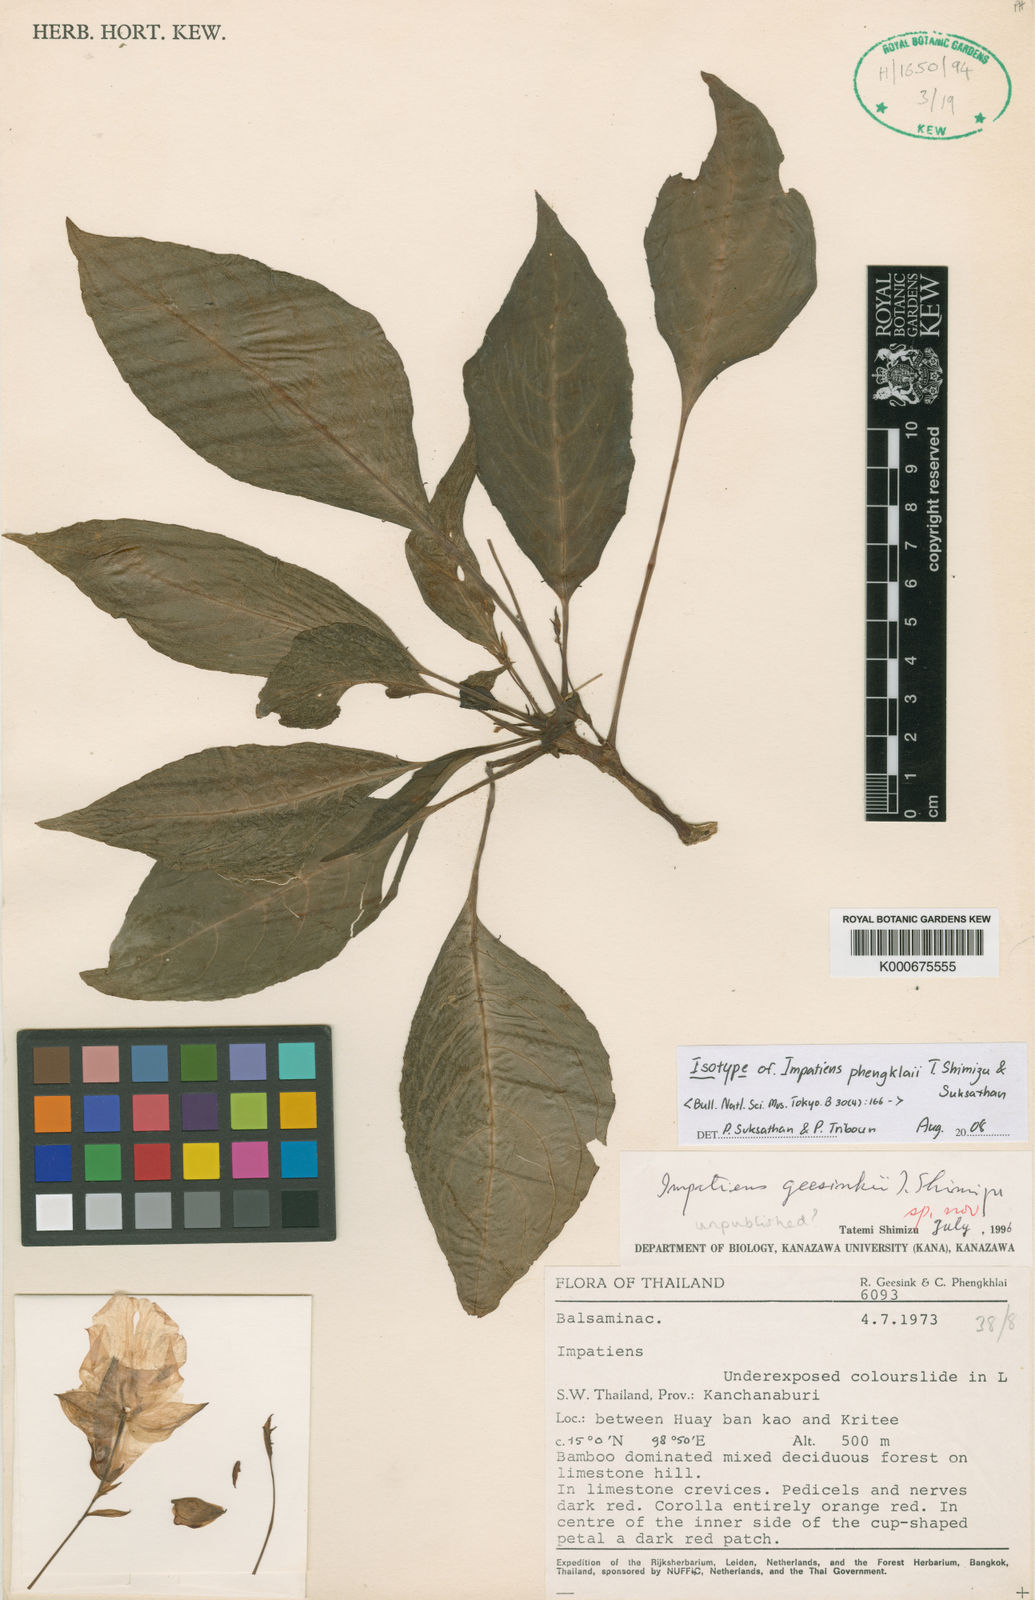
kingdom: Plantae
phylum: Tracheophyta
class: Magnoliopsida
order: Ericales
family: Balsaminaceae
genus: Impatiens
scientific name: Impatiens phengklaii
